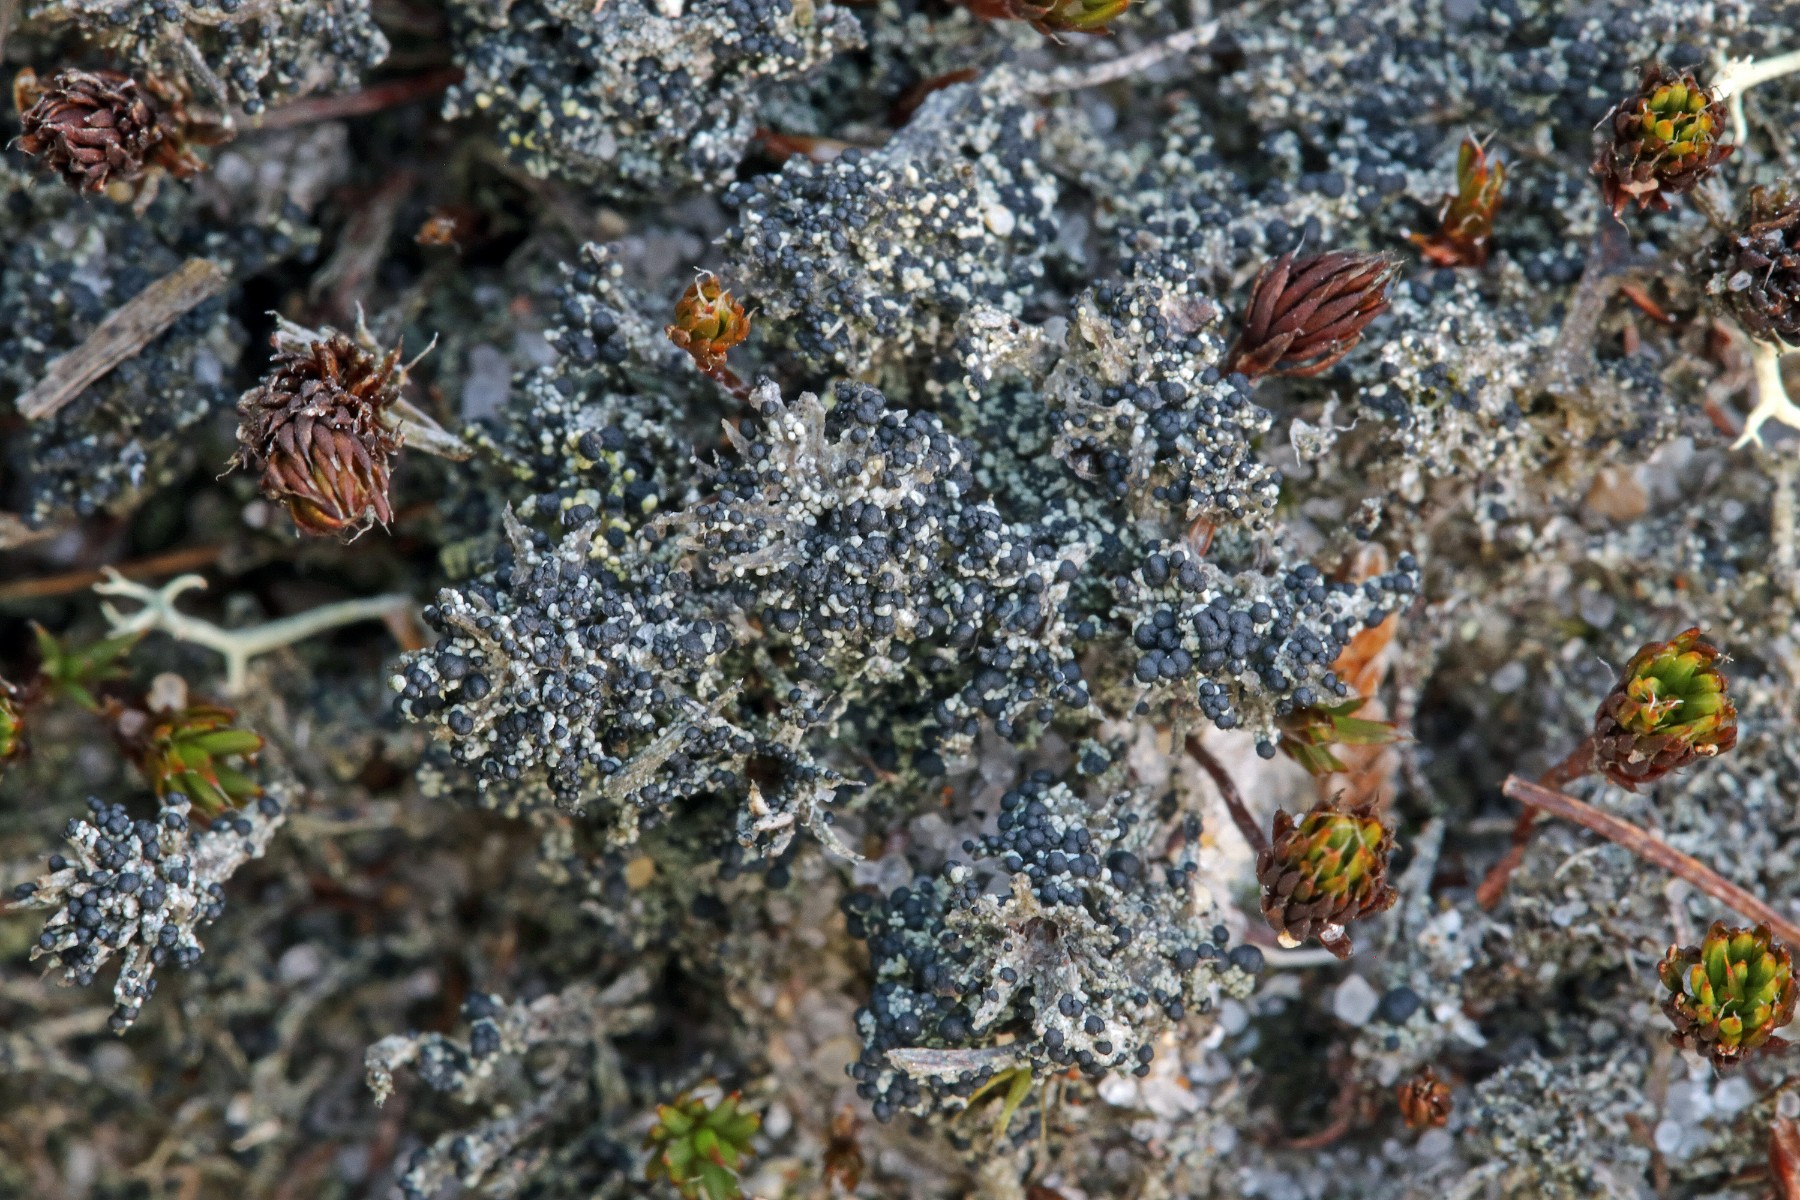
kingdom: Fungi
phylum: Ascomycota
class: Lecanoromycetes
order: Lecanorales
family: Byssolomataceae
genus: Micarea
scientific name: Micarea lignaria
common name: tørve-knaplav
